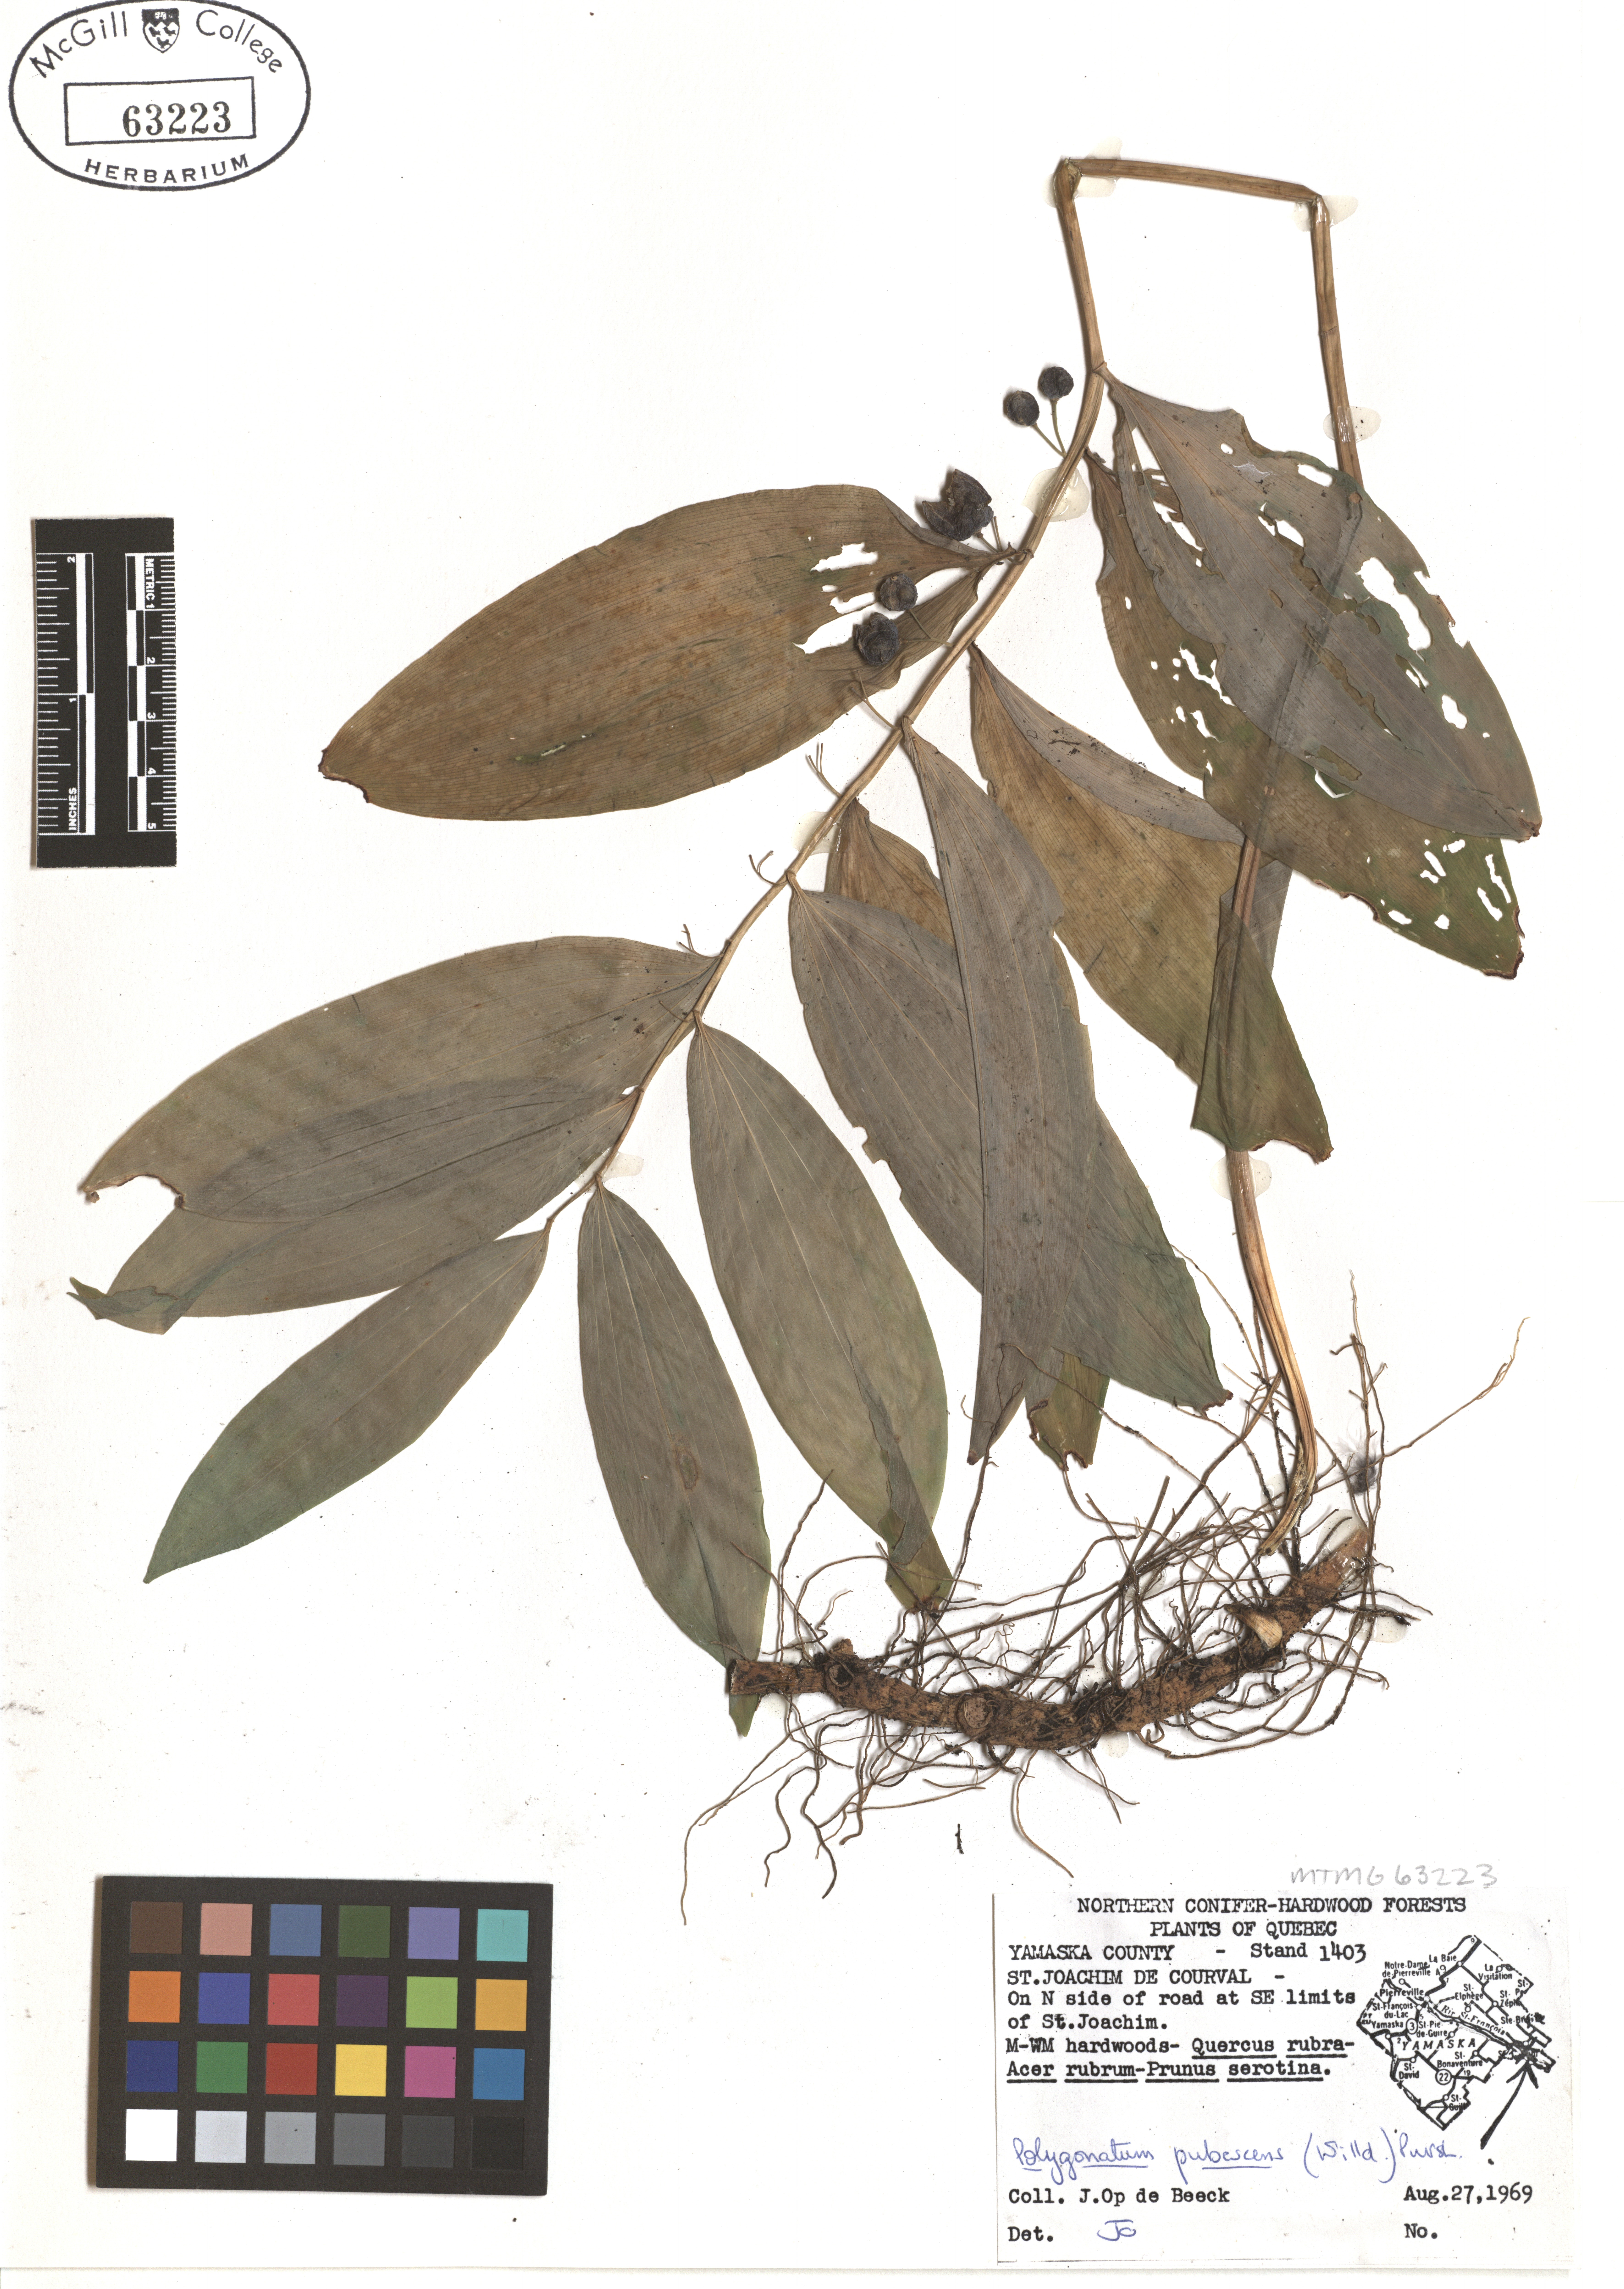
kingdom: Plantae
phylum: Tracheophyta
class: Liliopsida
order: Asparagales
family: Asparagaceae
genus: Polygonatum
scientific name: Polygonatum pubescens
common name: Downy solomon's seal
